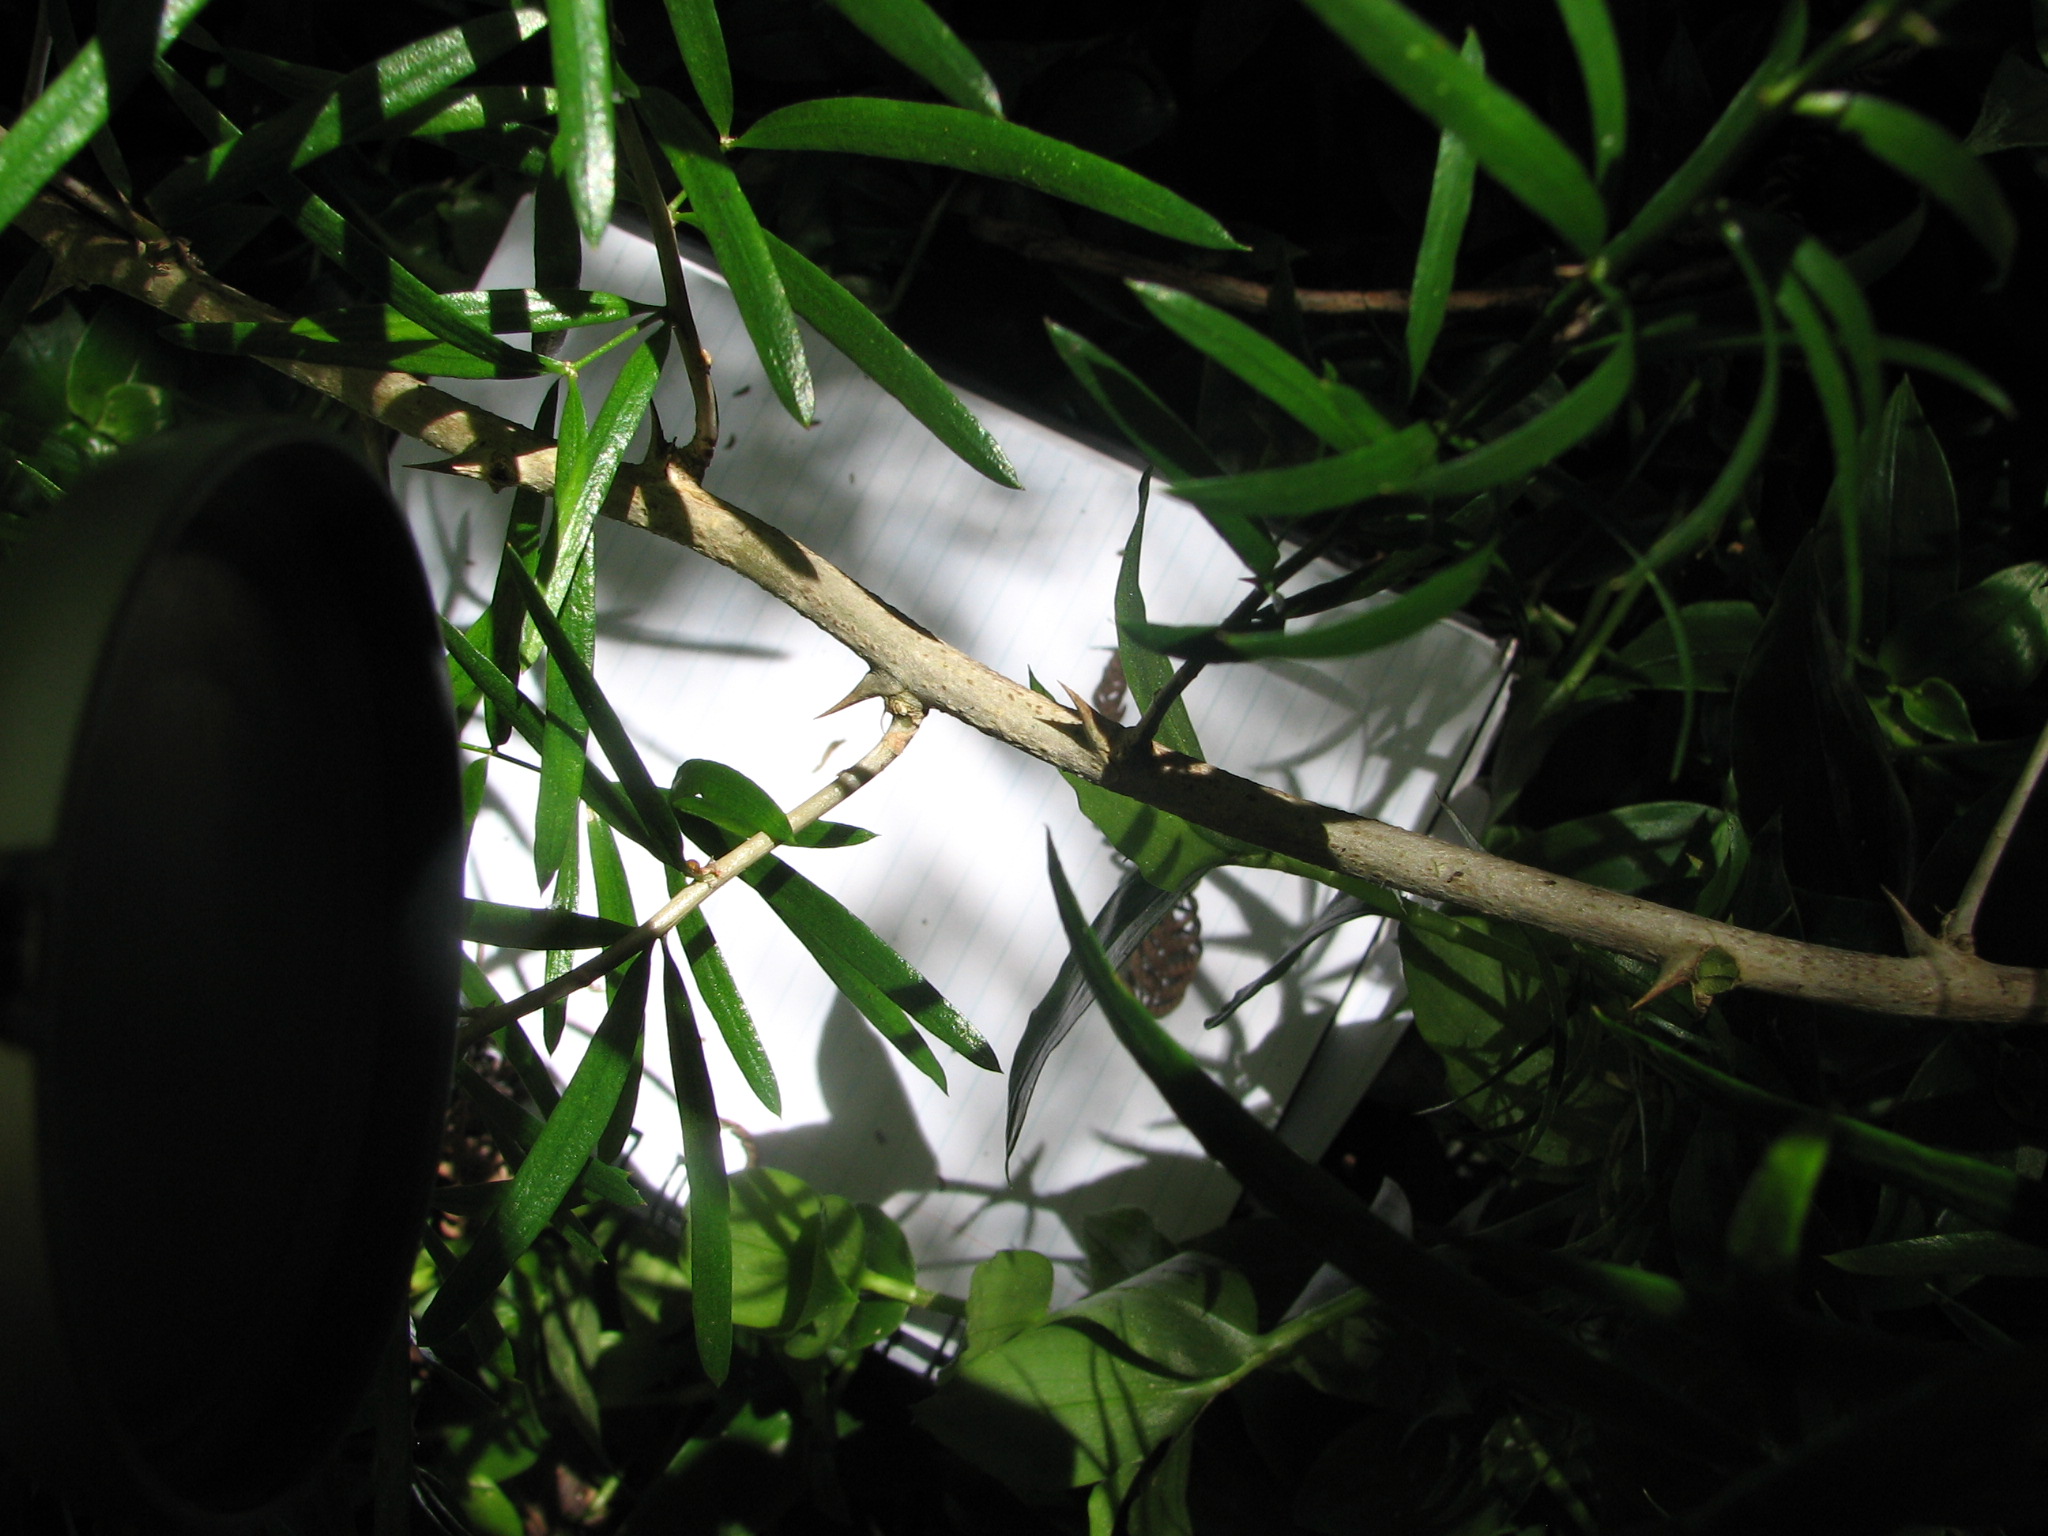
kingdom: Plantae
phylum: Tracheophyta
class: Liliopsida
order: Asparagales
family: Asparagaceae
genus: Asparagus
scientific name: Asparagus falcatus
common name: Asparagus
